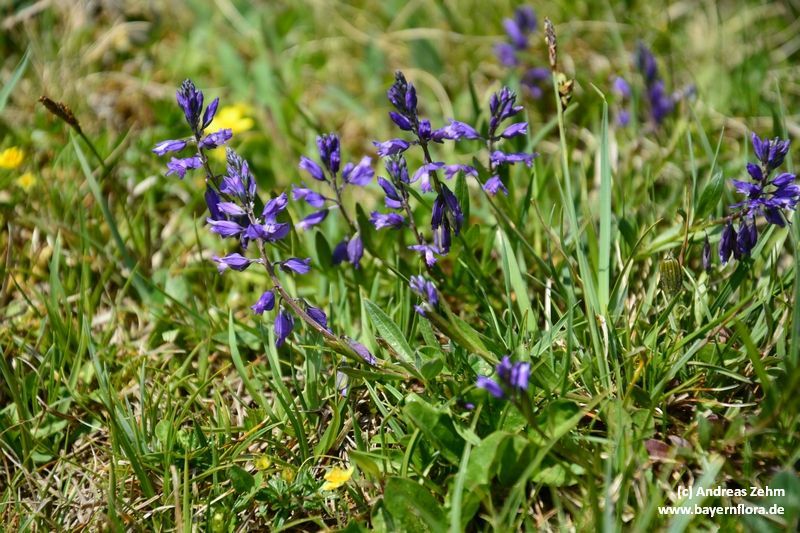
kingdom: Plantae
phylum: Tracheophyta
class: Magnoliopsida
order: Fabales
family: Polygalaceae
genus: Polygala
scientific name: Polygala vulgaris
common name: Common milkwort
